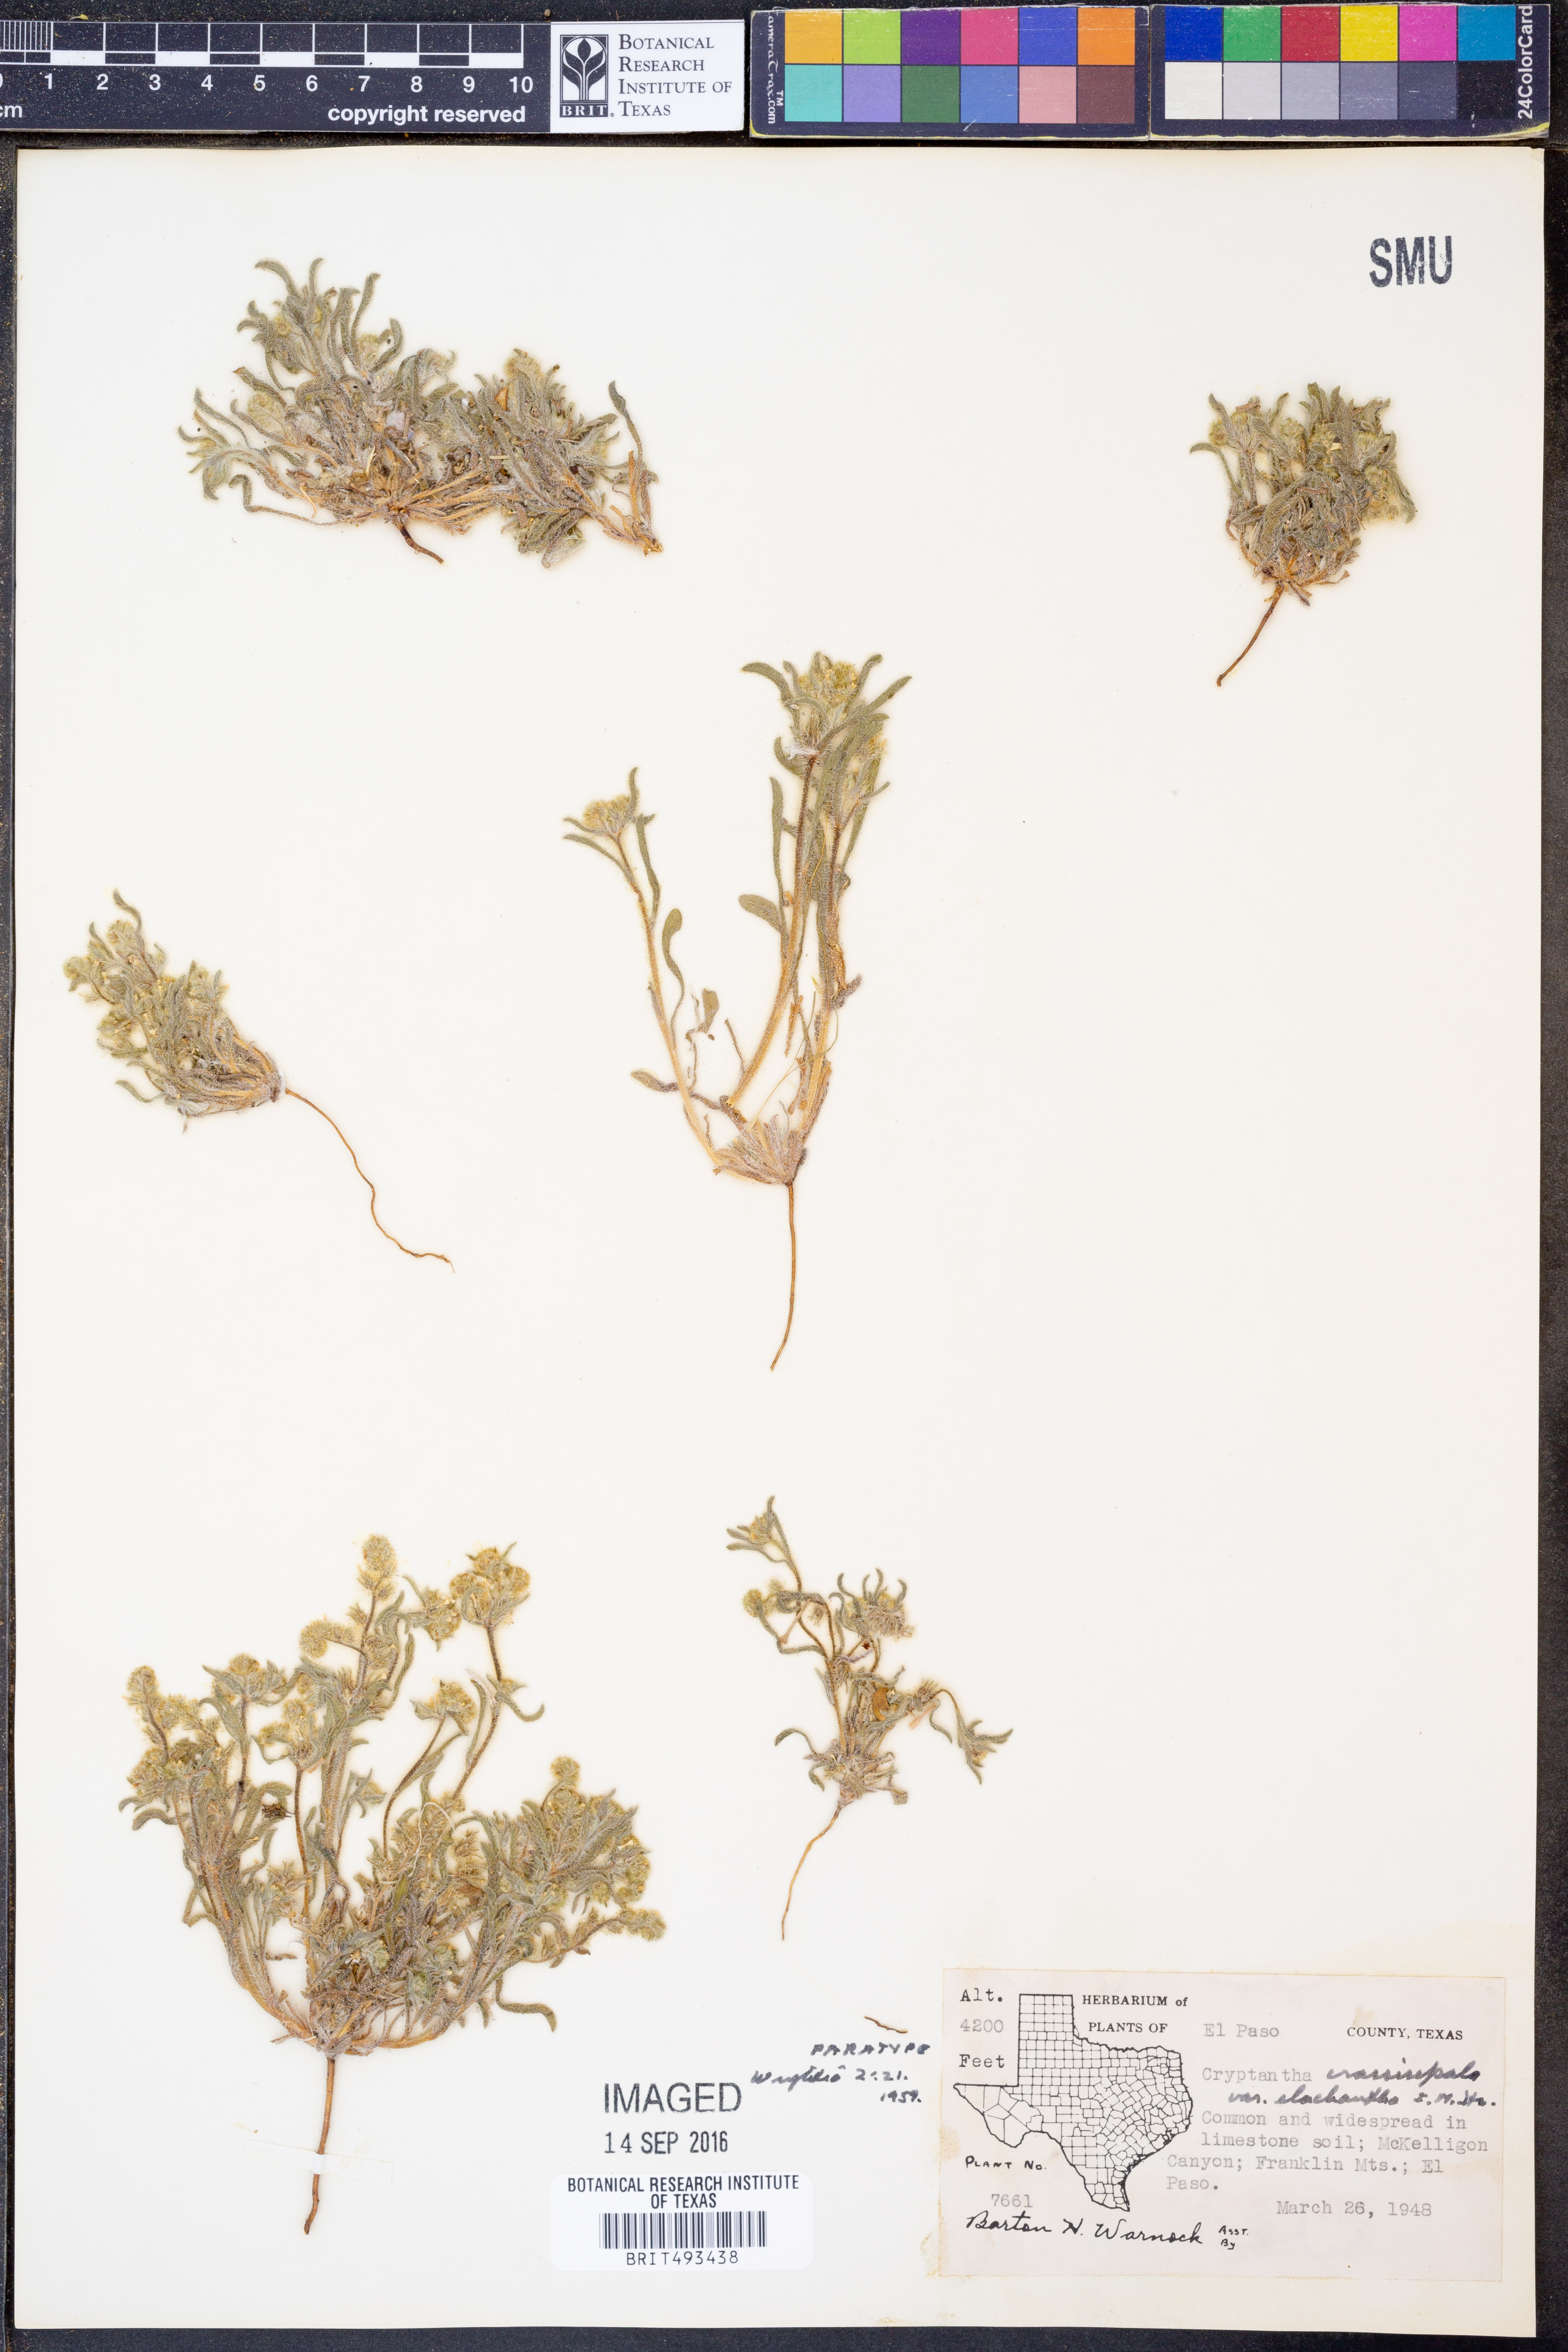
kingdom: Plantae
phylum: Tracheophyta
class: Magnoliopsida
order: Boraginales
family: Boraginaceae
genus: Cryptantha
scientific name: Cryptantha crassisepala
